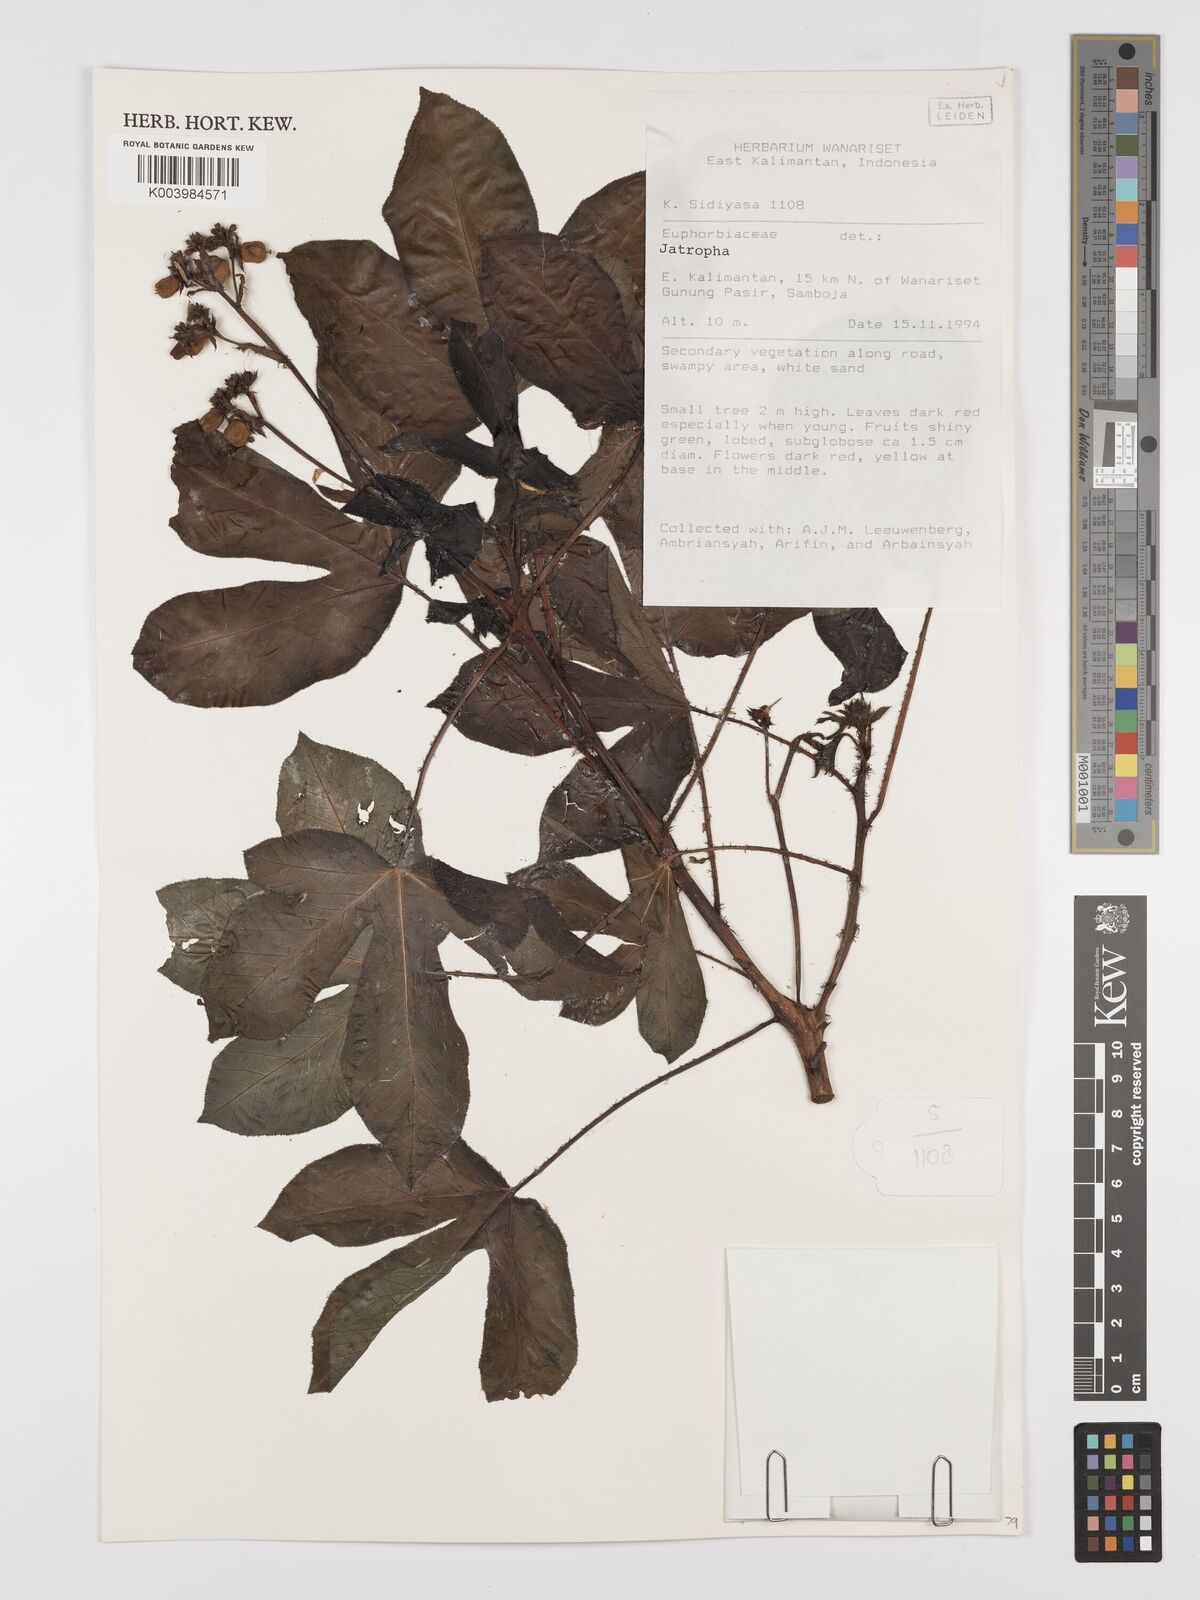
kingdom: Plantae
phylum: Tracheophyta
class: Magnoliopsida
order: Malpighiales
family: Euphorbiaceae
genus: Jatropha
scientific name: Jatropha gossypiifolia
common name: Bellyache bush
